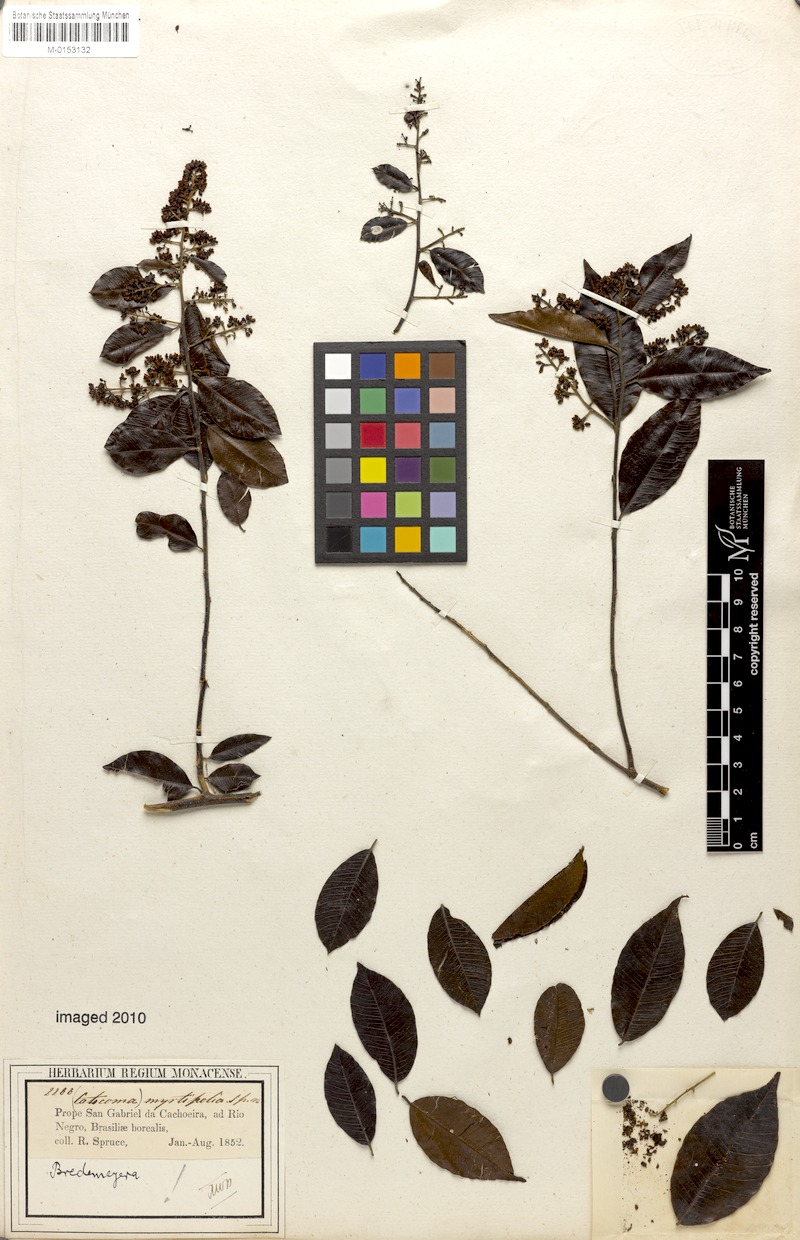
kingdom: Plantae
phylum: Tracheophyta
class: Magnoliopsida
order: Fabales
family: Polygalaceae
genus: Bredemeyera
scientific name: Bredemeyera myrtifolia
